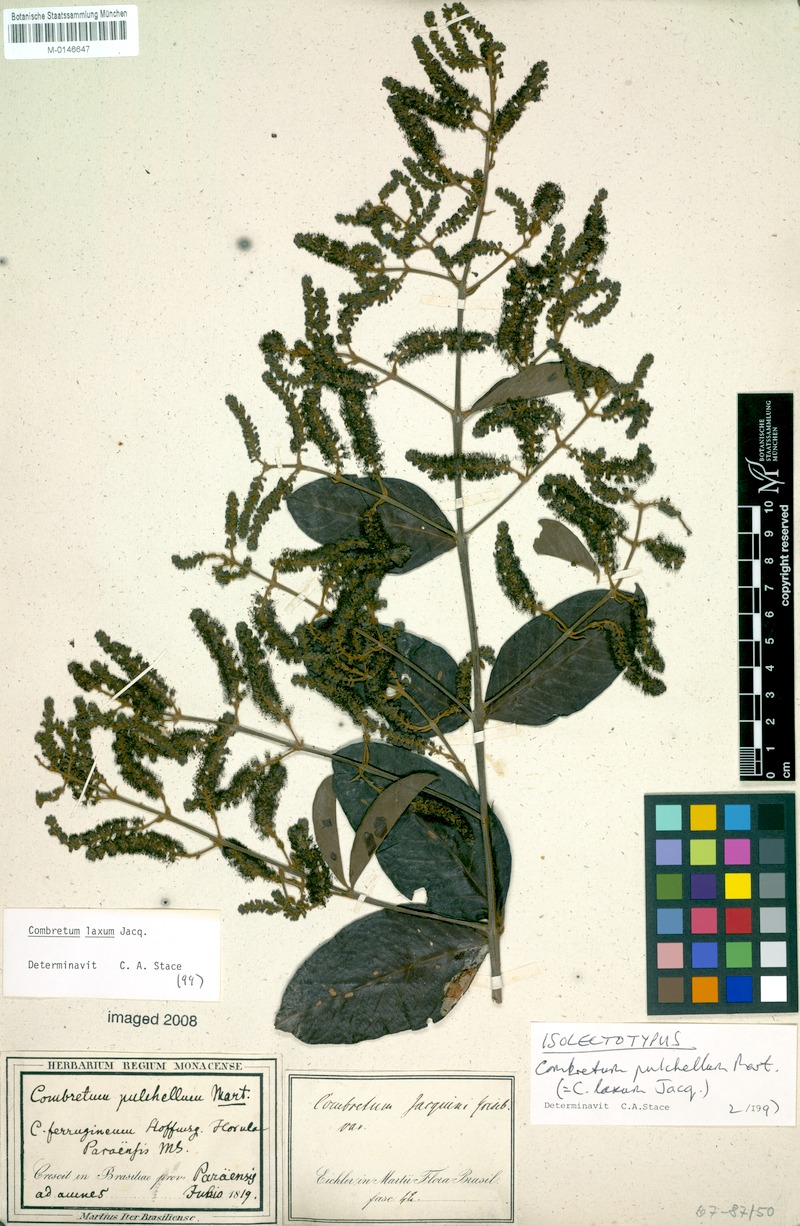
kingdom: Plantae
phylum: Tracheophyta
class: Magnoliopsida
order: Myrtales
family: Combretaceae
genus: Combretum
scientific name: Combretum laxum
